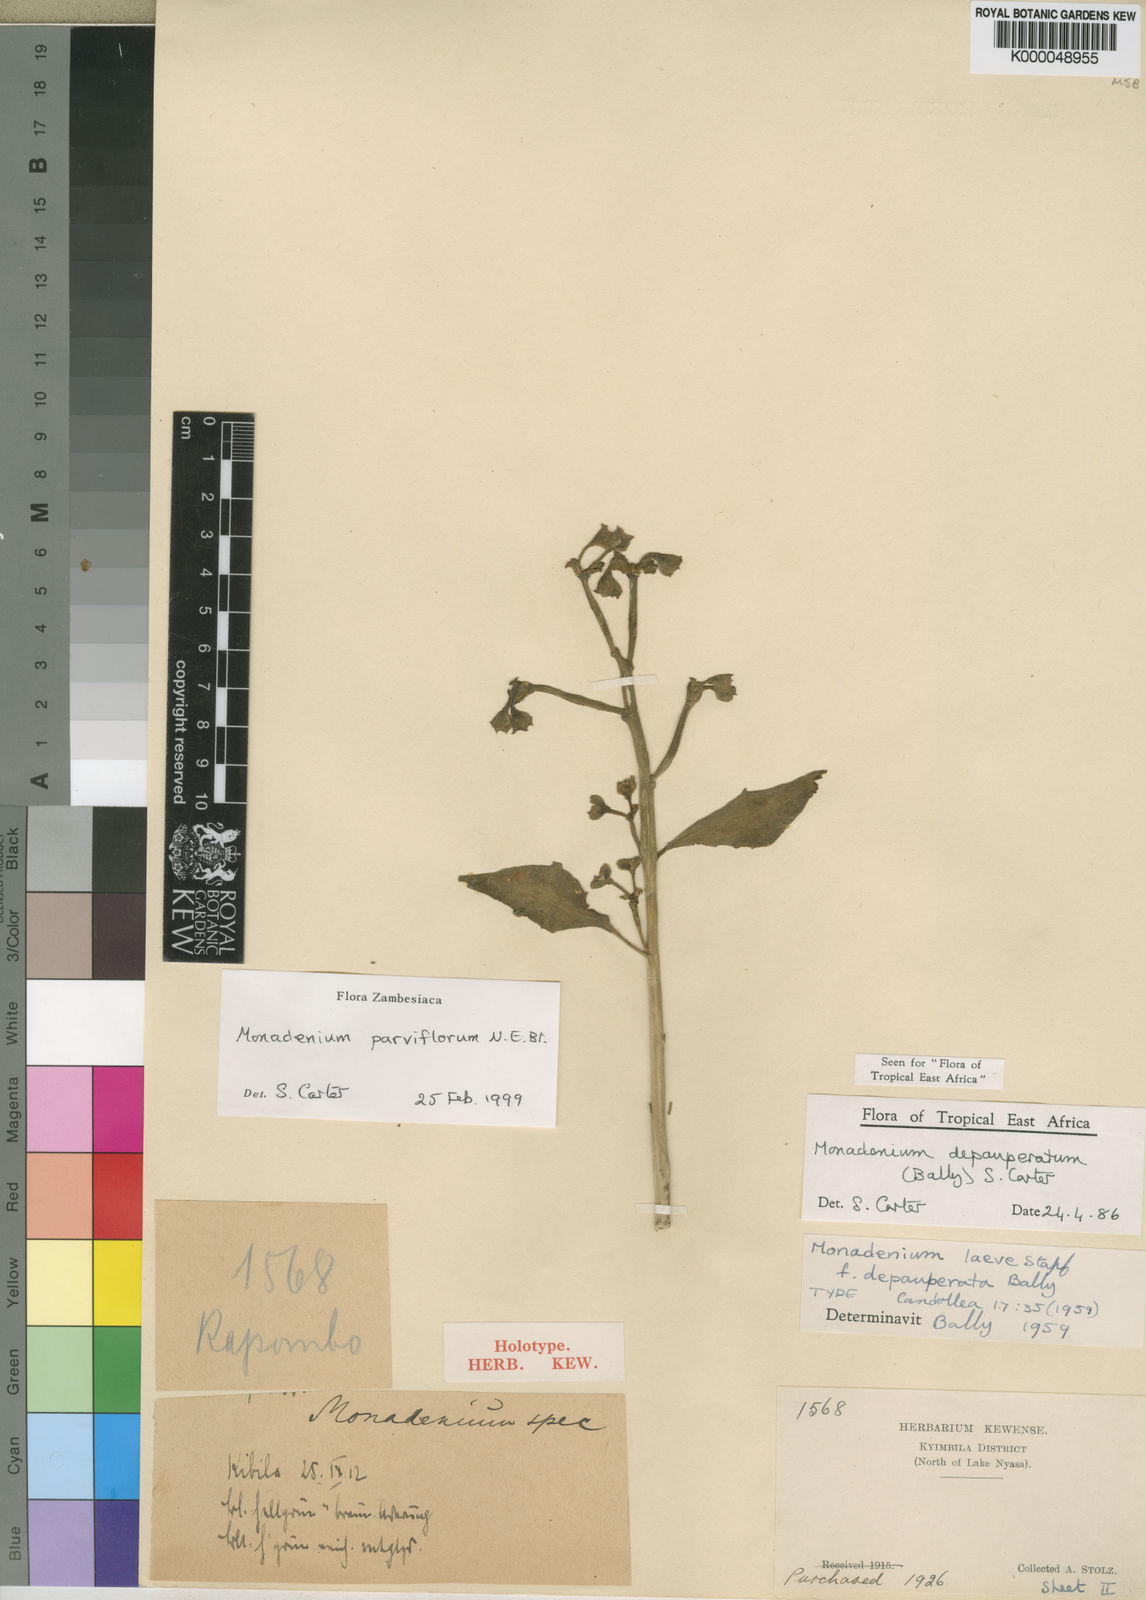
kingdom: Plantae
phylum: Tracheophyta
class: Magnoliopsida
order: Malpighiales
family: Euphorbiaceae
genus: Euphorbia
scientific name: Euphorbia neoparviflora
